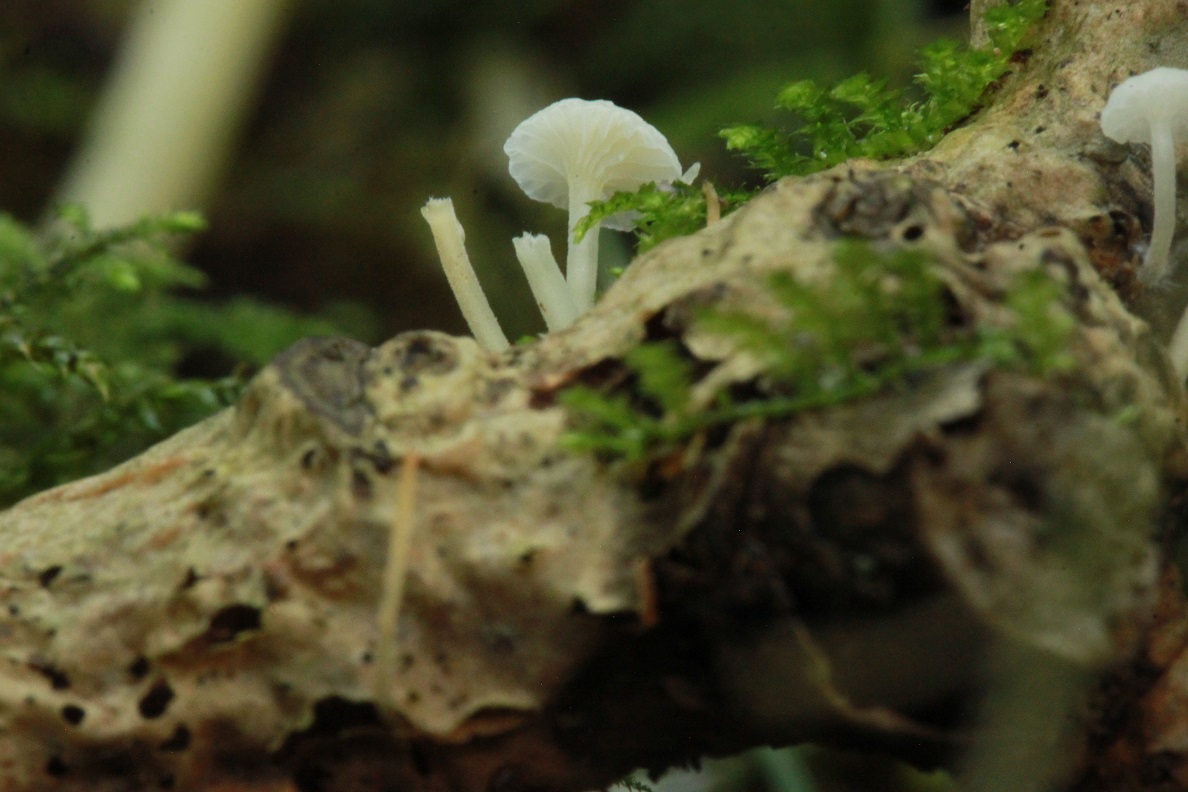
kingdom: Fungi
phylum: Basidiomycota
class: Agaricomycetes
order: Agaricales
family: Porotheleaceae
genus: Phloeomana
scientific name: Phloeomana speirea
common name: kvist-huesvamp
